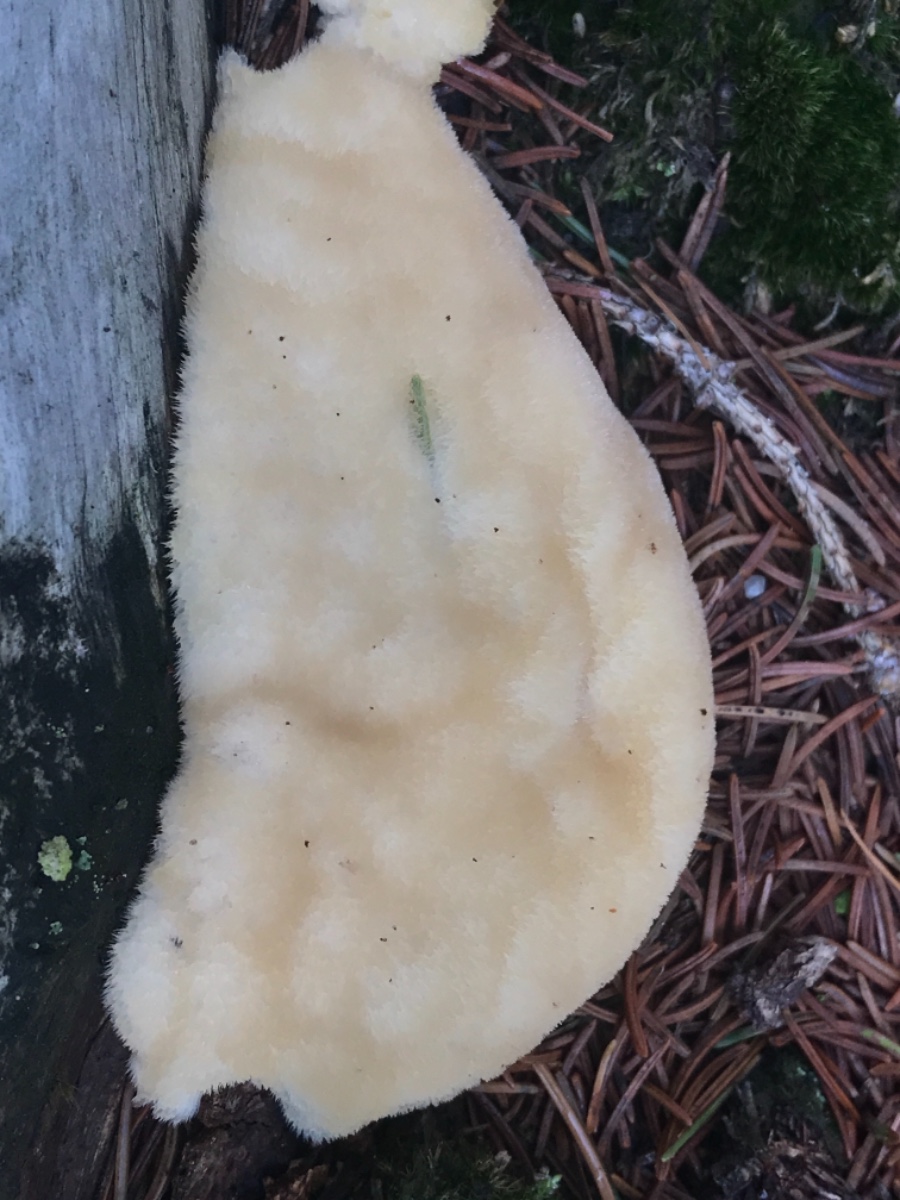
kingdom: Fungi
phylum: Basidiomycota
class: Agaricomycetes
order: Polyporales
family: Dacryobolaceae
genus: Postia
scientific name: Postia ptychogaster
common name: støvende kødporesvamp
